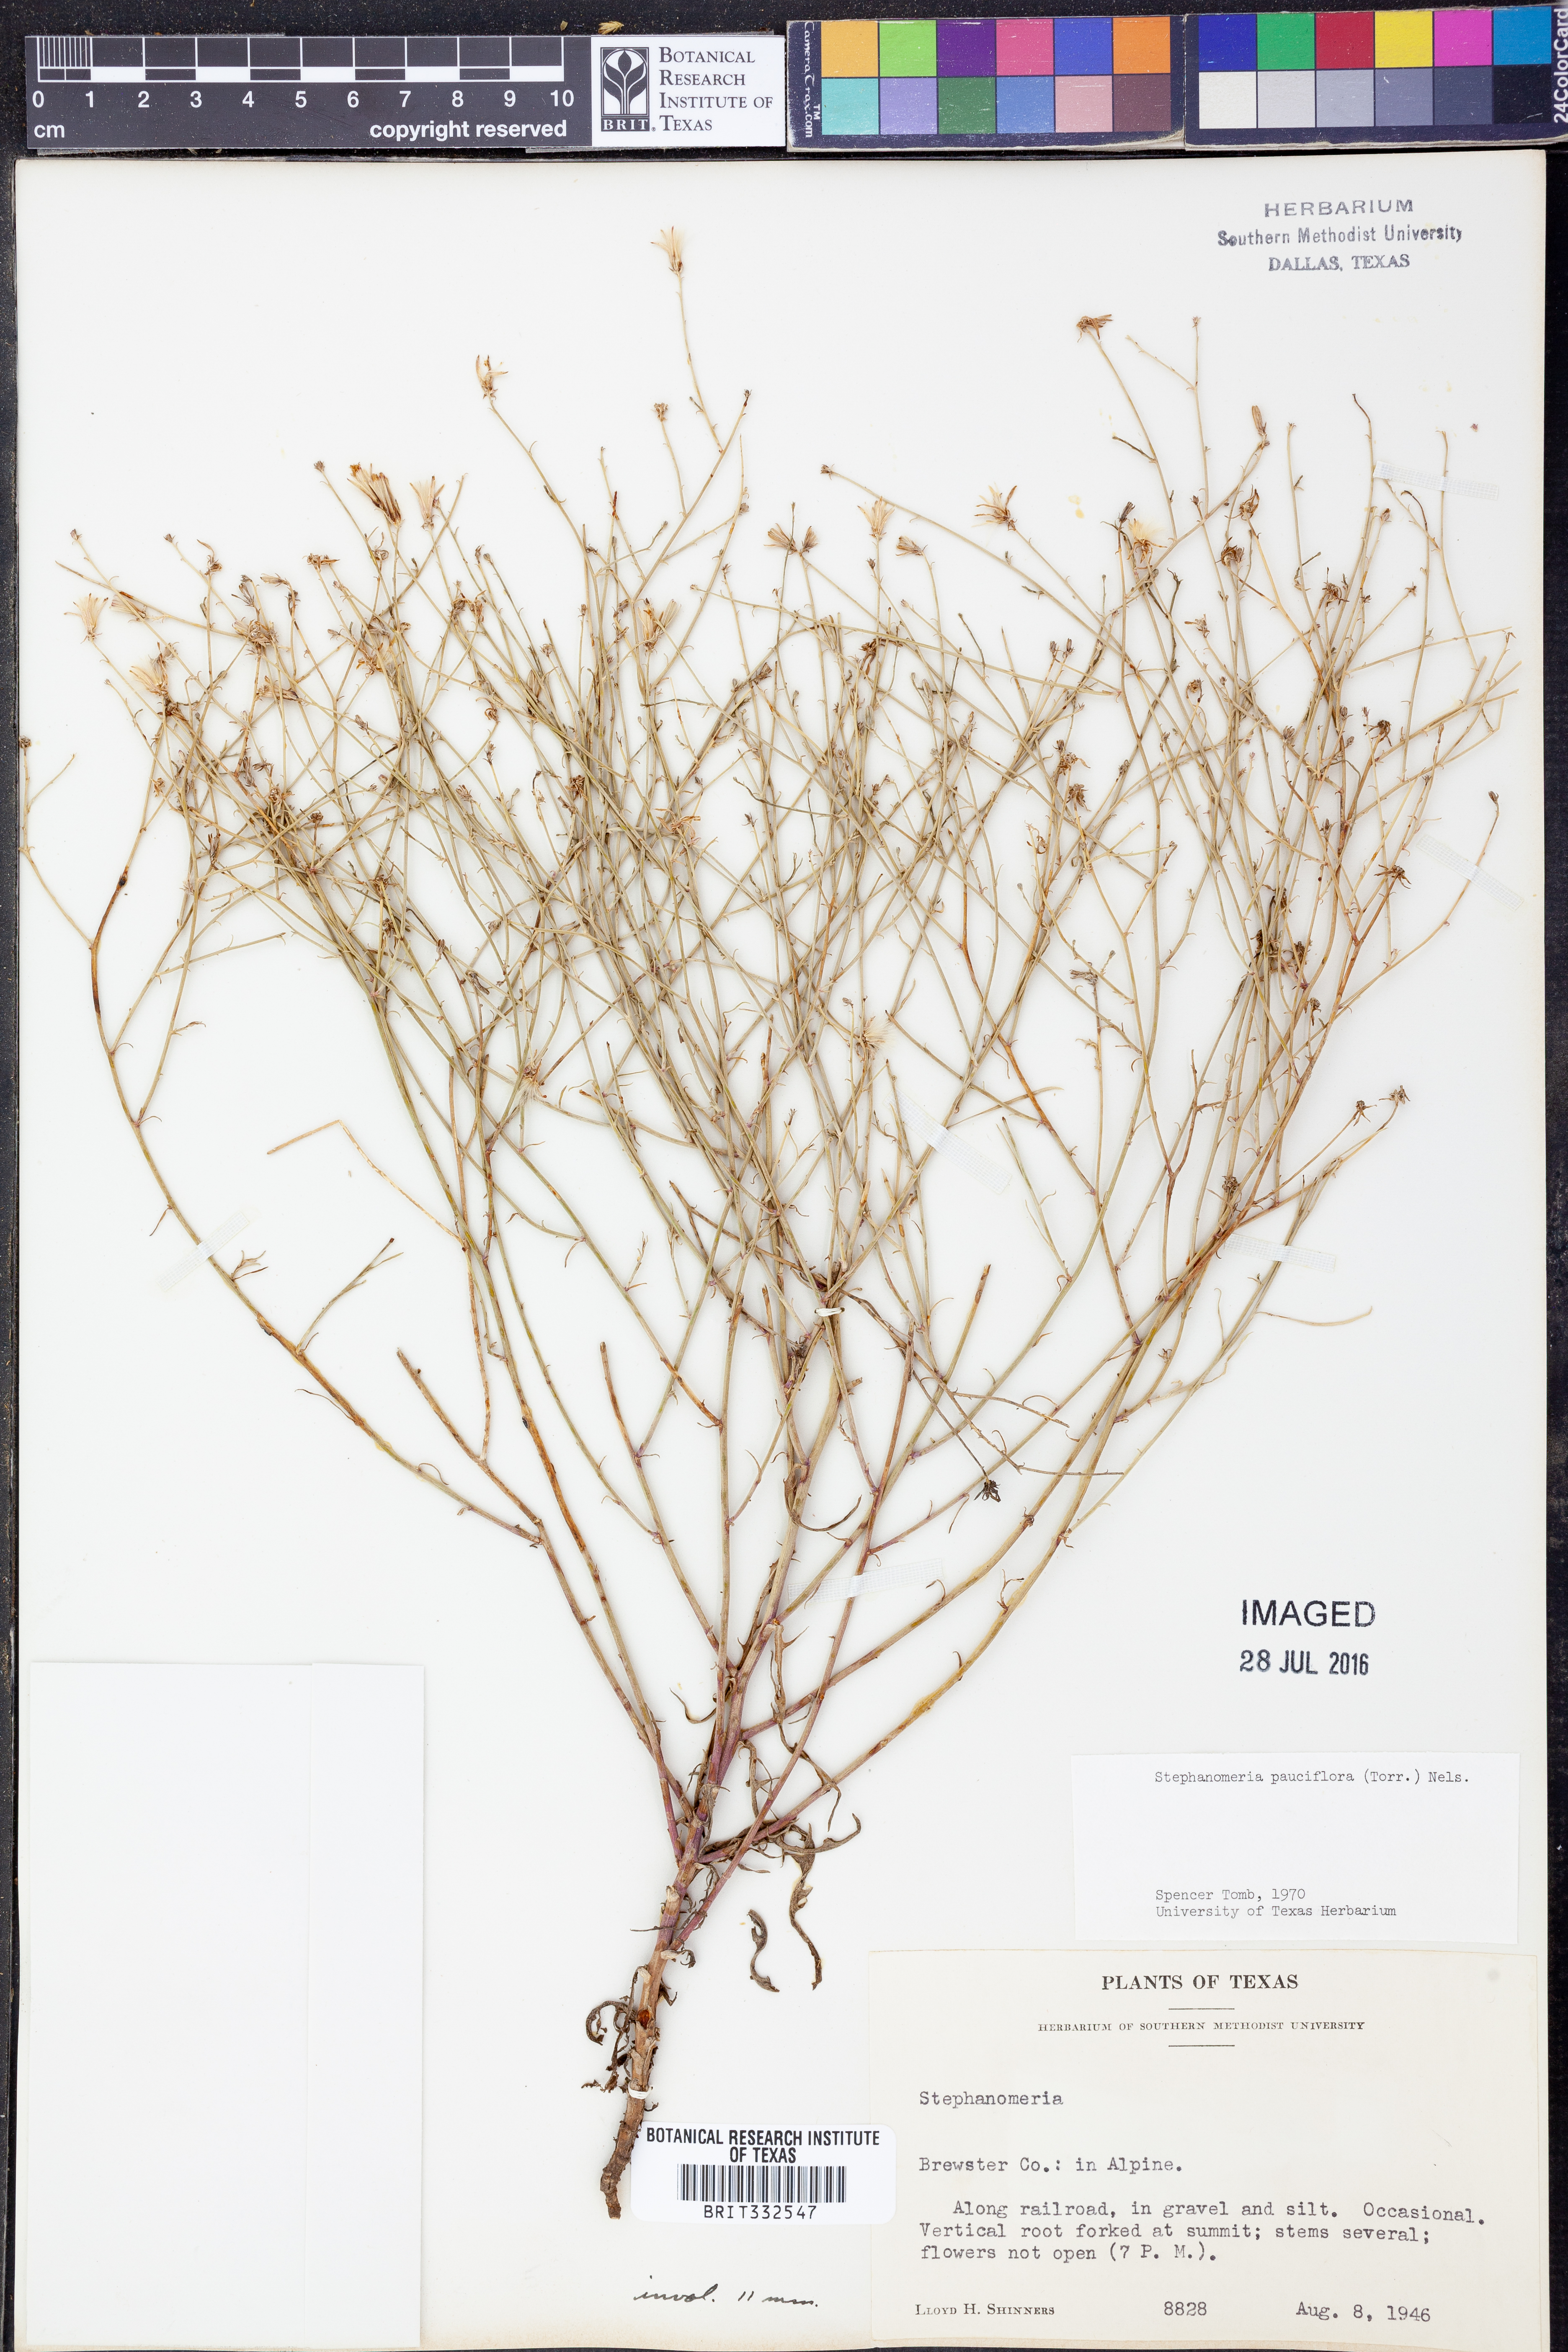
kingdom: Plantae
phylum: Tracheophyta
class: Magnoliopsida
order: Asterales
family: Asteraceae
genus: Stephanomeria
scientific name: Stephanomeria pauciflora
